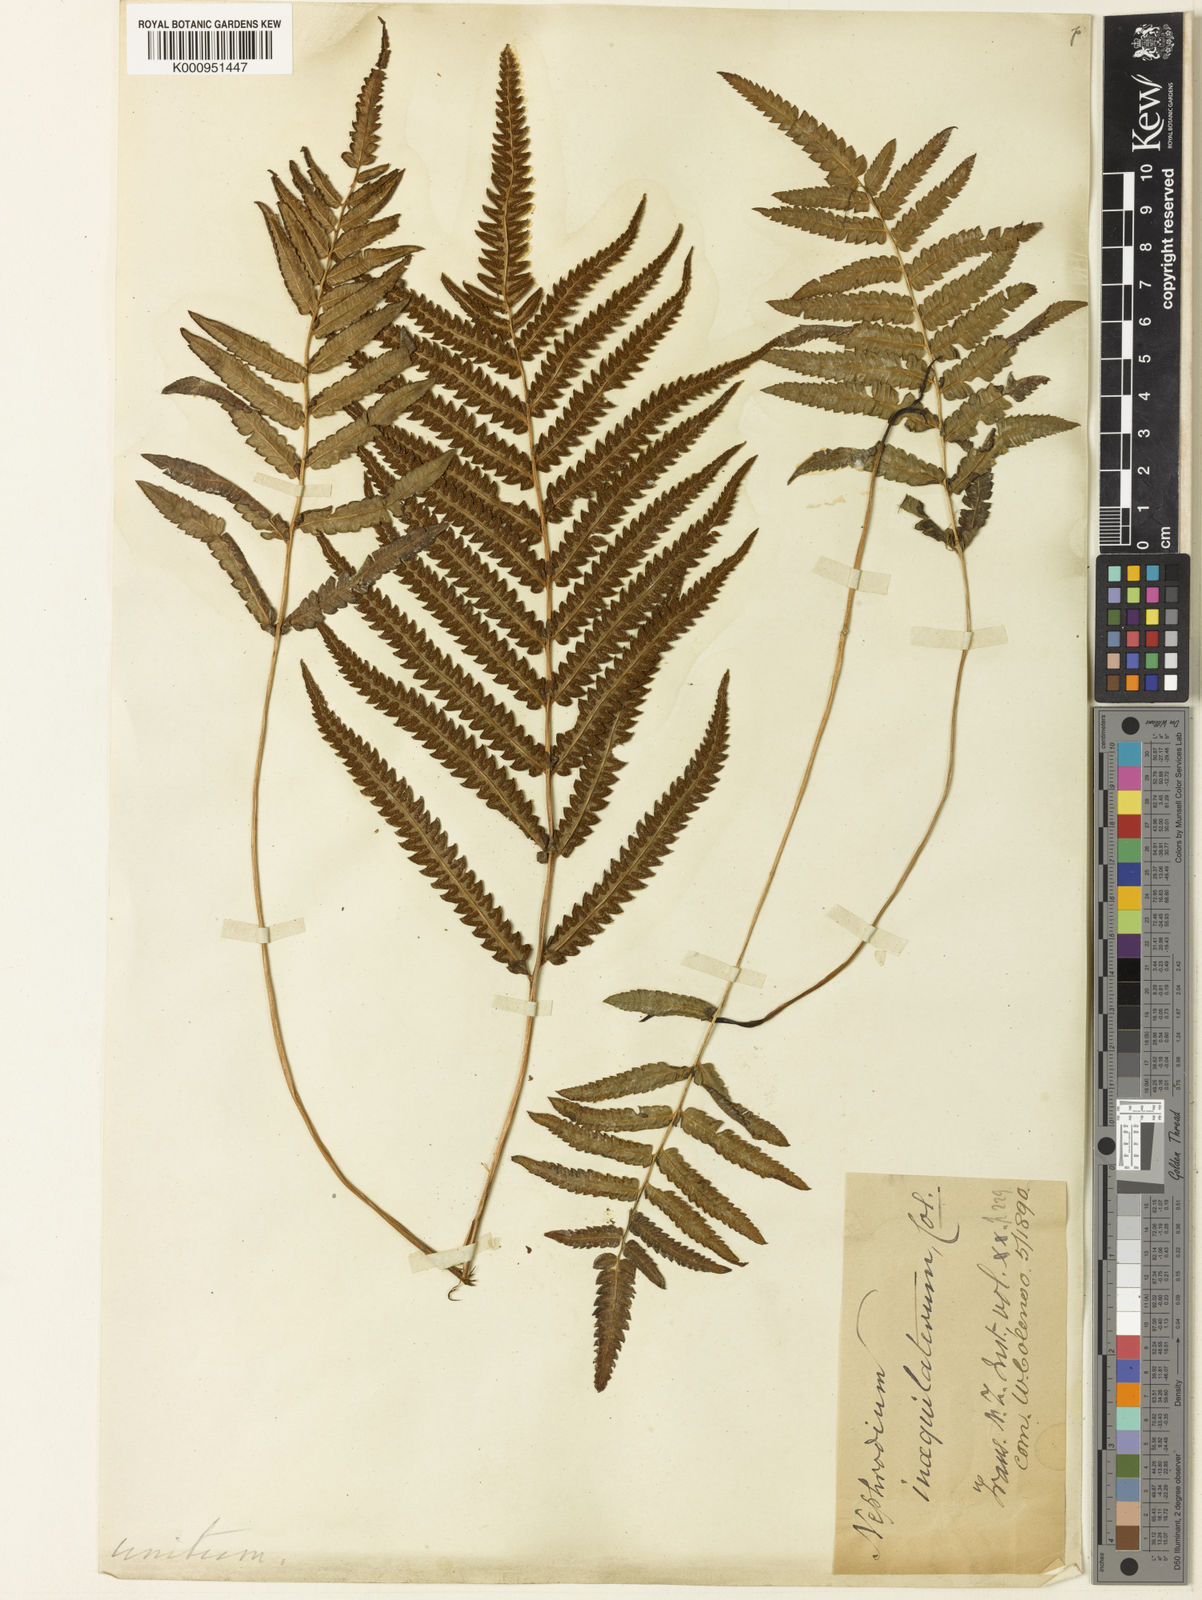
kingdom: Plantae
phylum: Tracheophyta
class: Polypodiopsida
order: Polypodiales
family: Thelypteridaceae
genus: Cyclosorus
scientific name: Cyclosorus interruptus
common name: Neke fern
